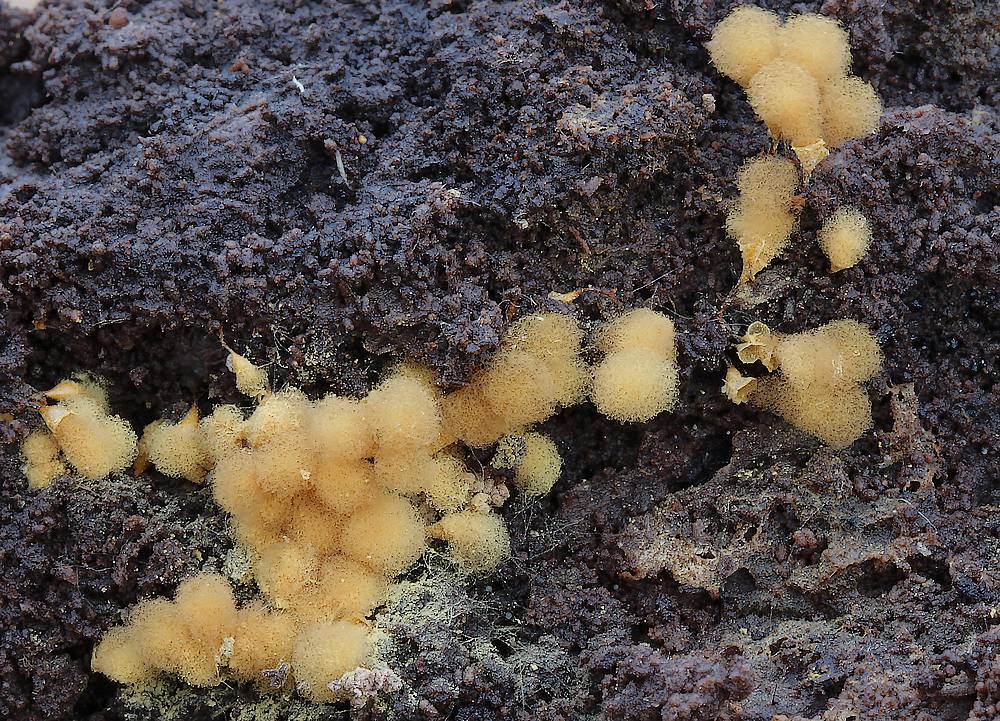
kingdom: Protozoa
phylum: Mycetozoa
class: Myxomycetes
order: Trichiales
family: Arcyriaceae
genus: Hemitrichia
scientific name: Hemitrichia clavata
